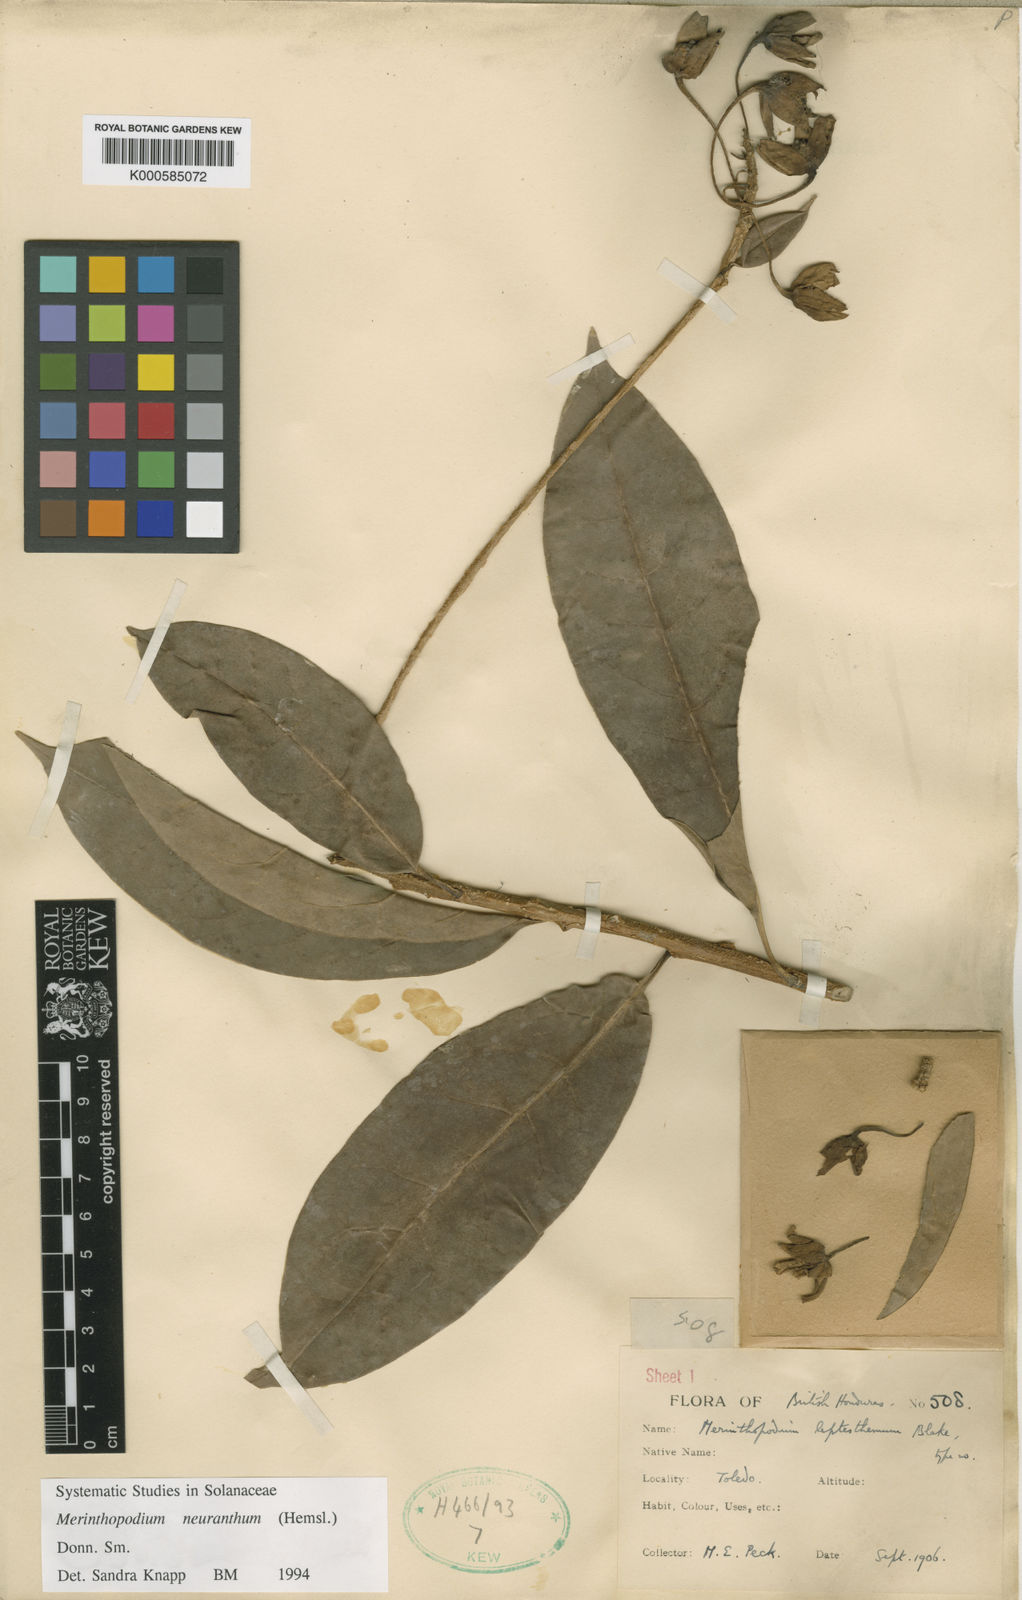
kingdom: Plantae
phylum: Tracheophyta
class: Magnoliopsida
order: Solanales
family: Solanaceae
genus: Merinthopodium
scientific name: Merinthopodium neuranthum
